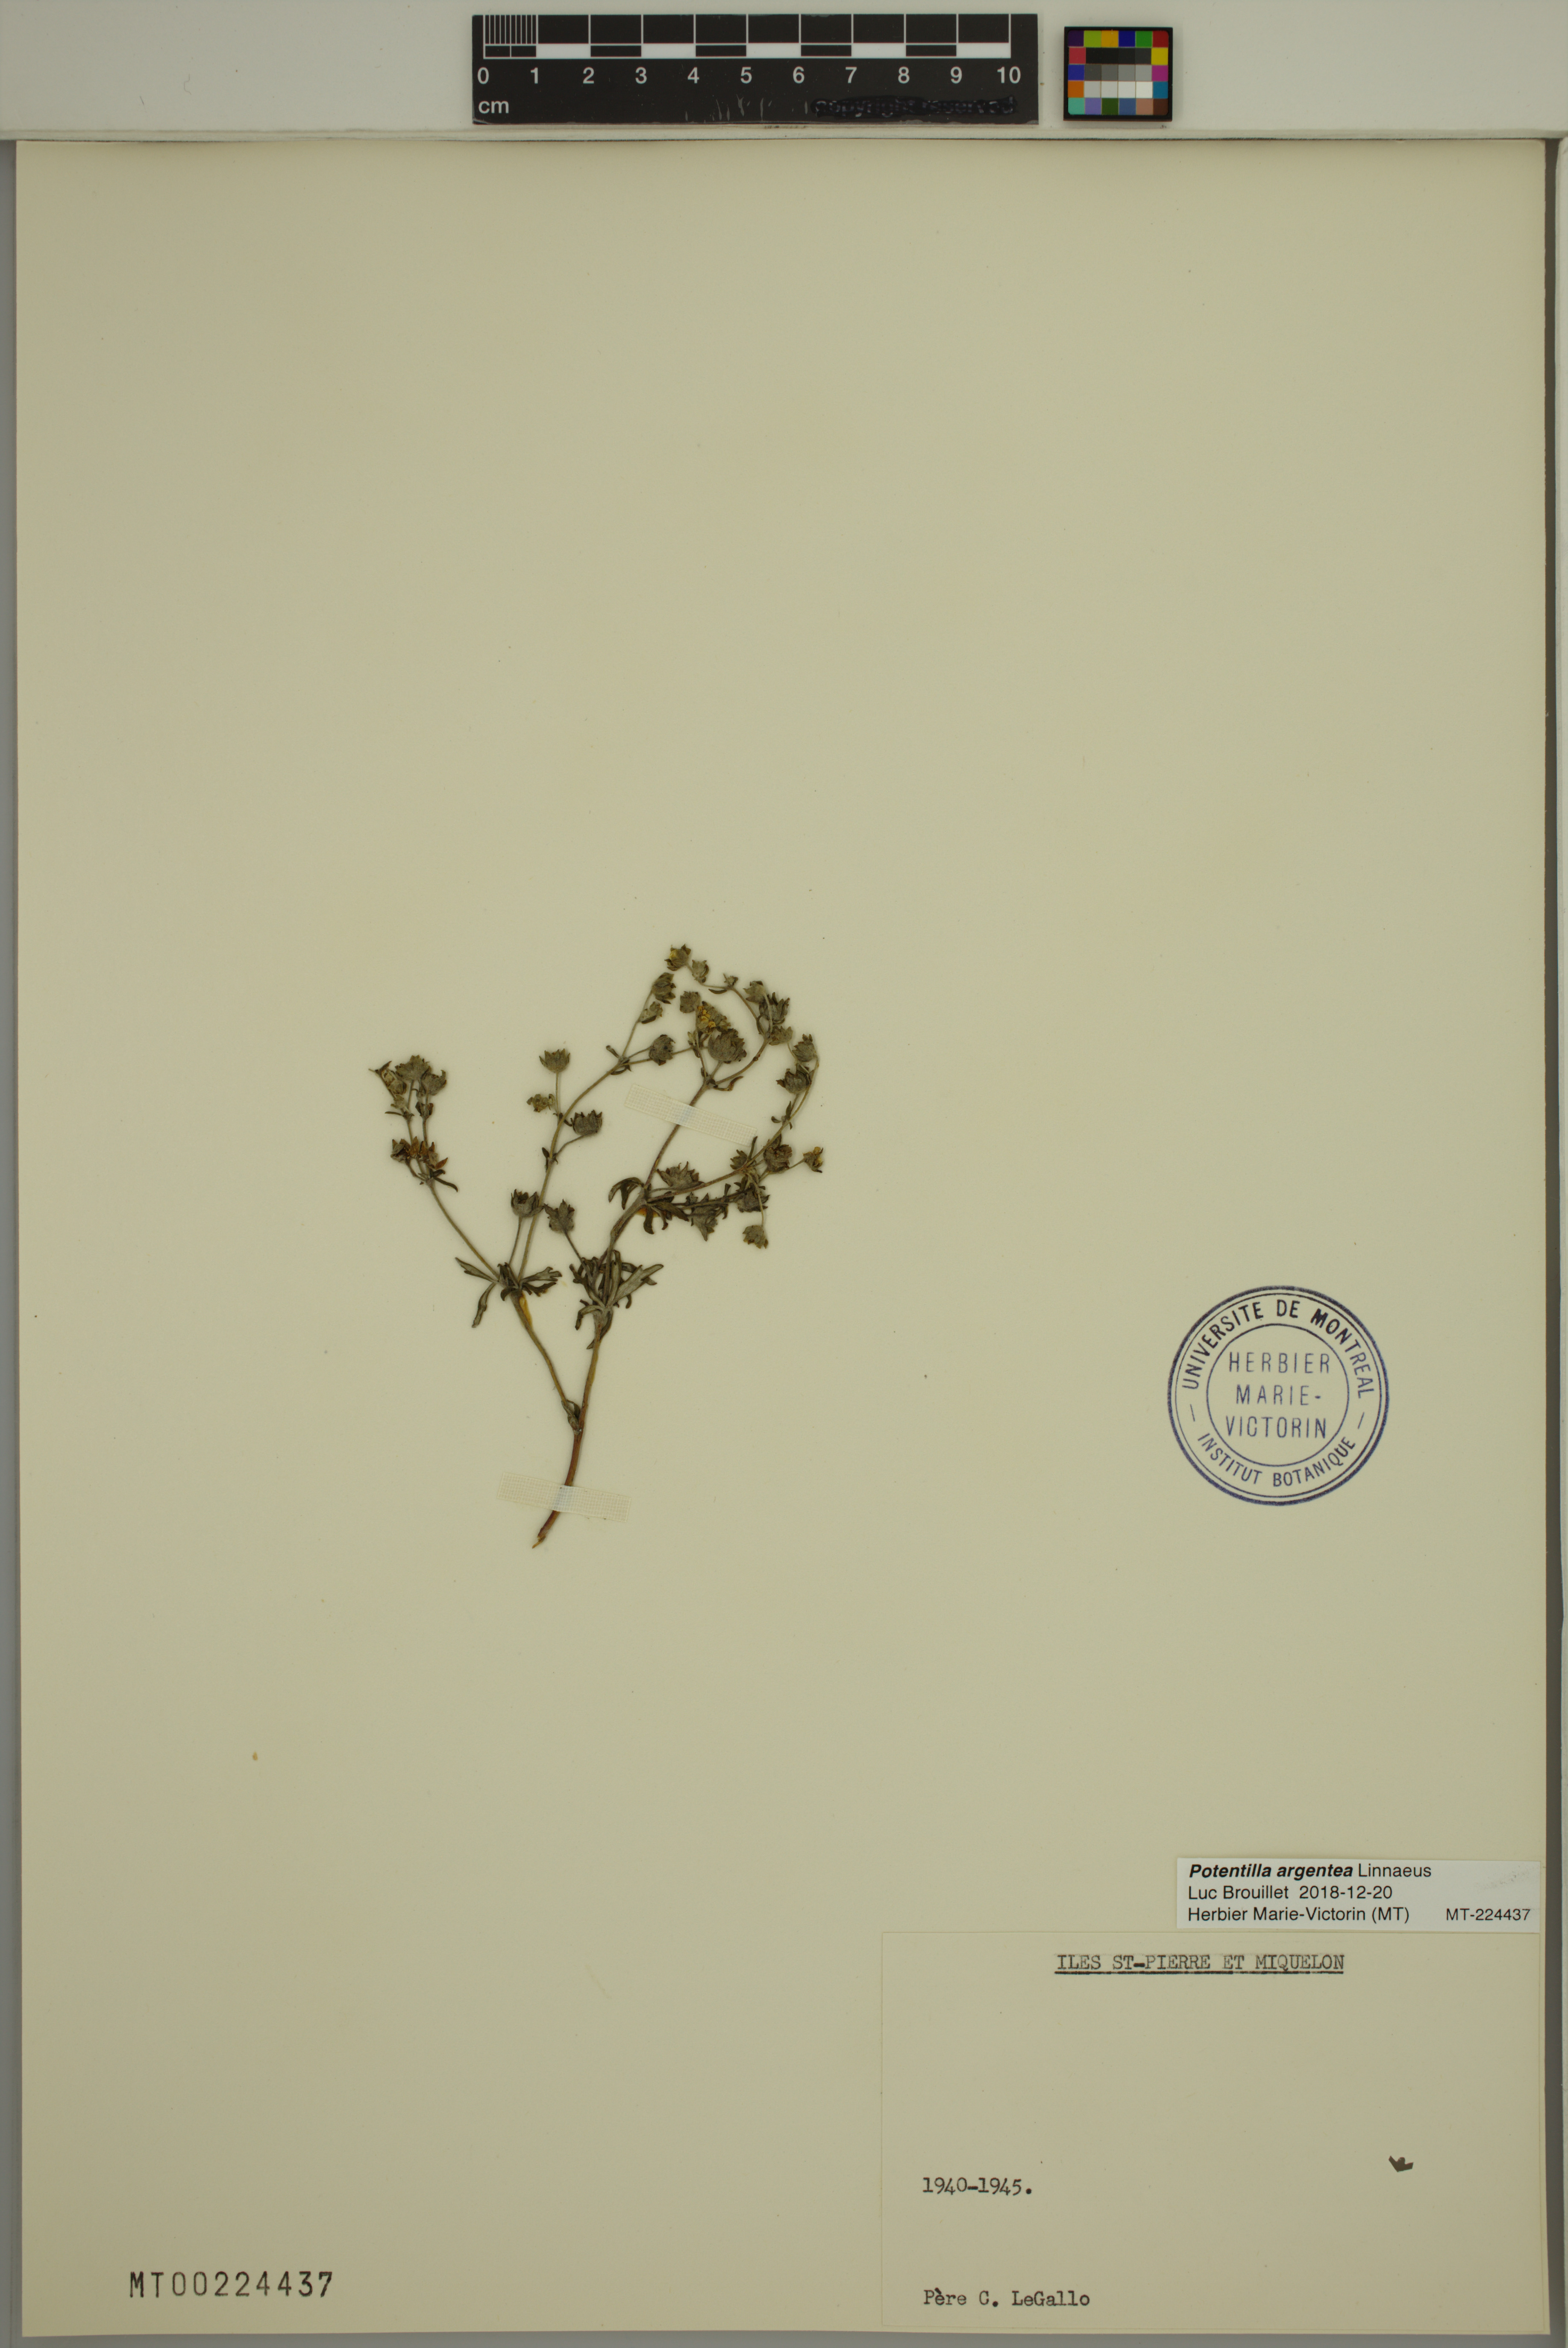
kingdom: Plantae
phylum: Tracheophyta
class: Magnoliopsida
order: Rosales
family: Rosaceae
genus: Potentilla
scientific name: Potentilla argentea
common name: Hoary cinquefoil
